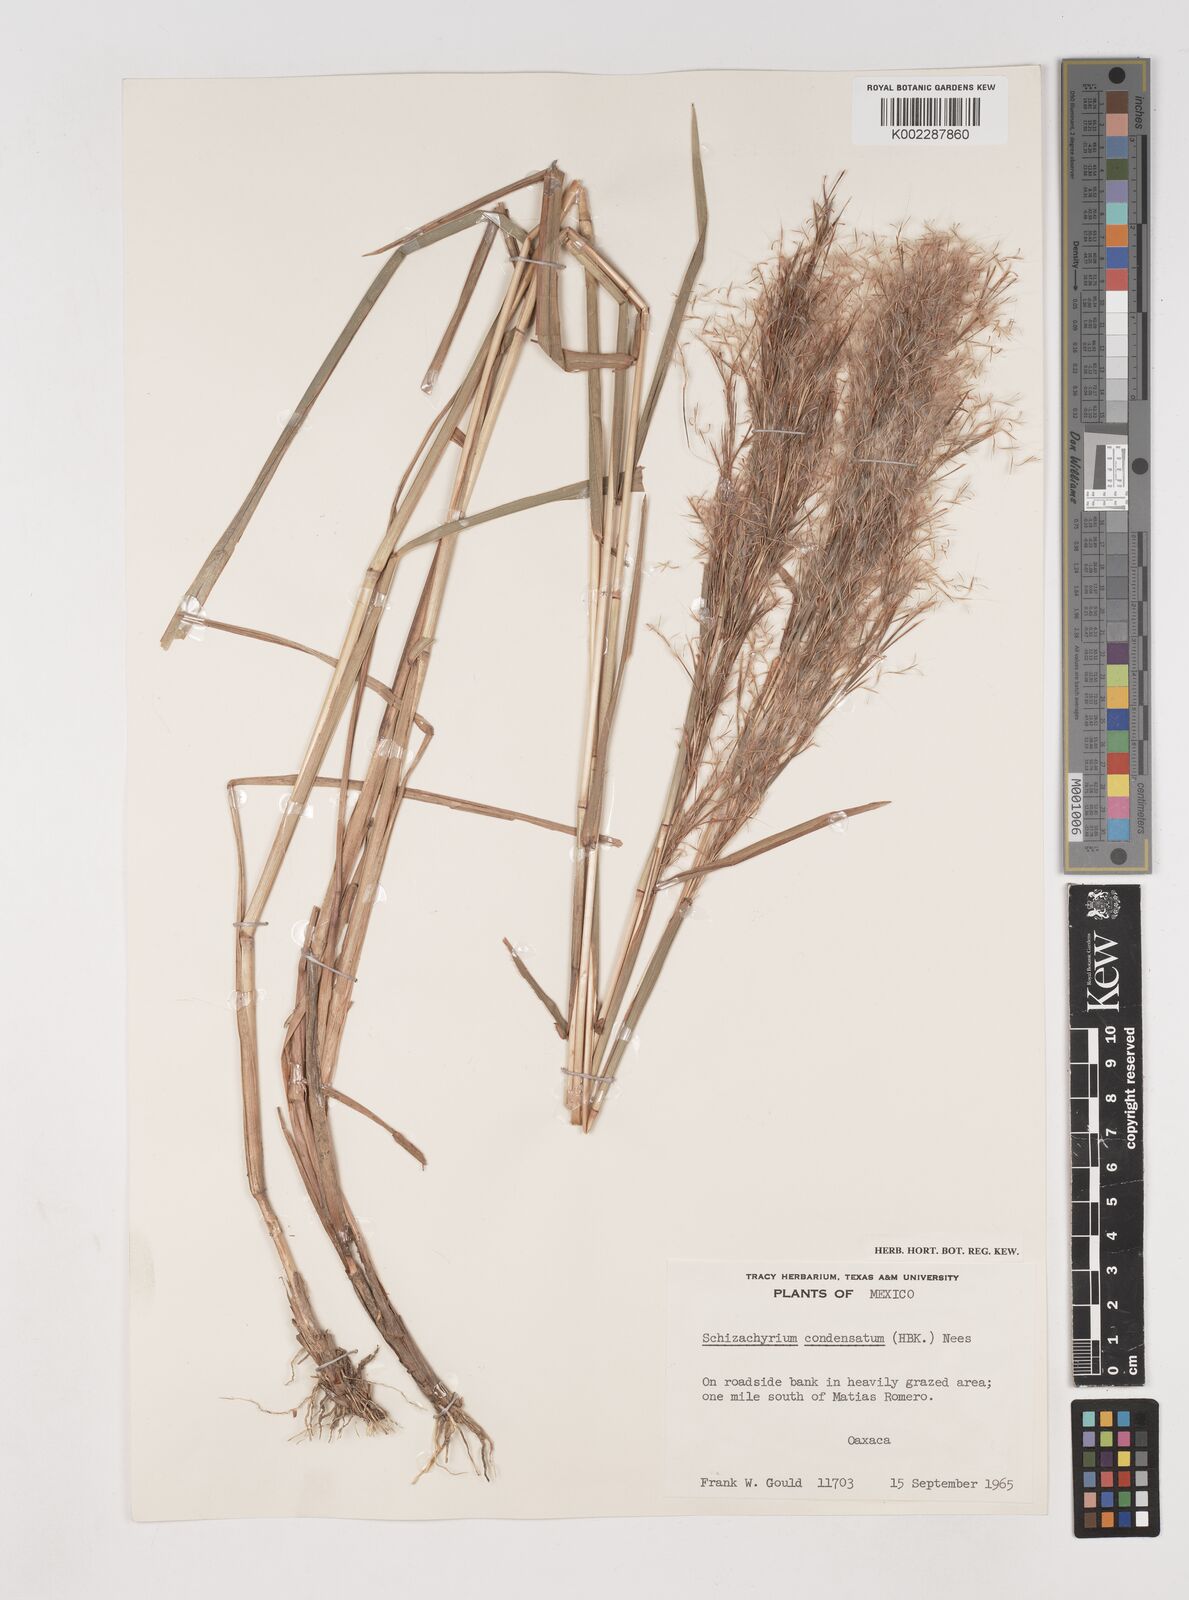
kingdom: Plantae
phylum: Tracheophyta
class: Liliopsida
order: Poales
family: Poaceae
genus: Schizachyrium
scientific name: Schizachyrium condensatum
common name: Bush beardgrass
